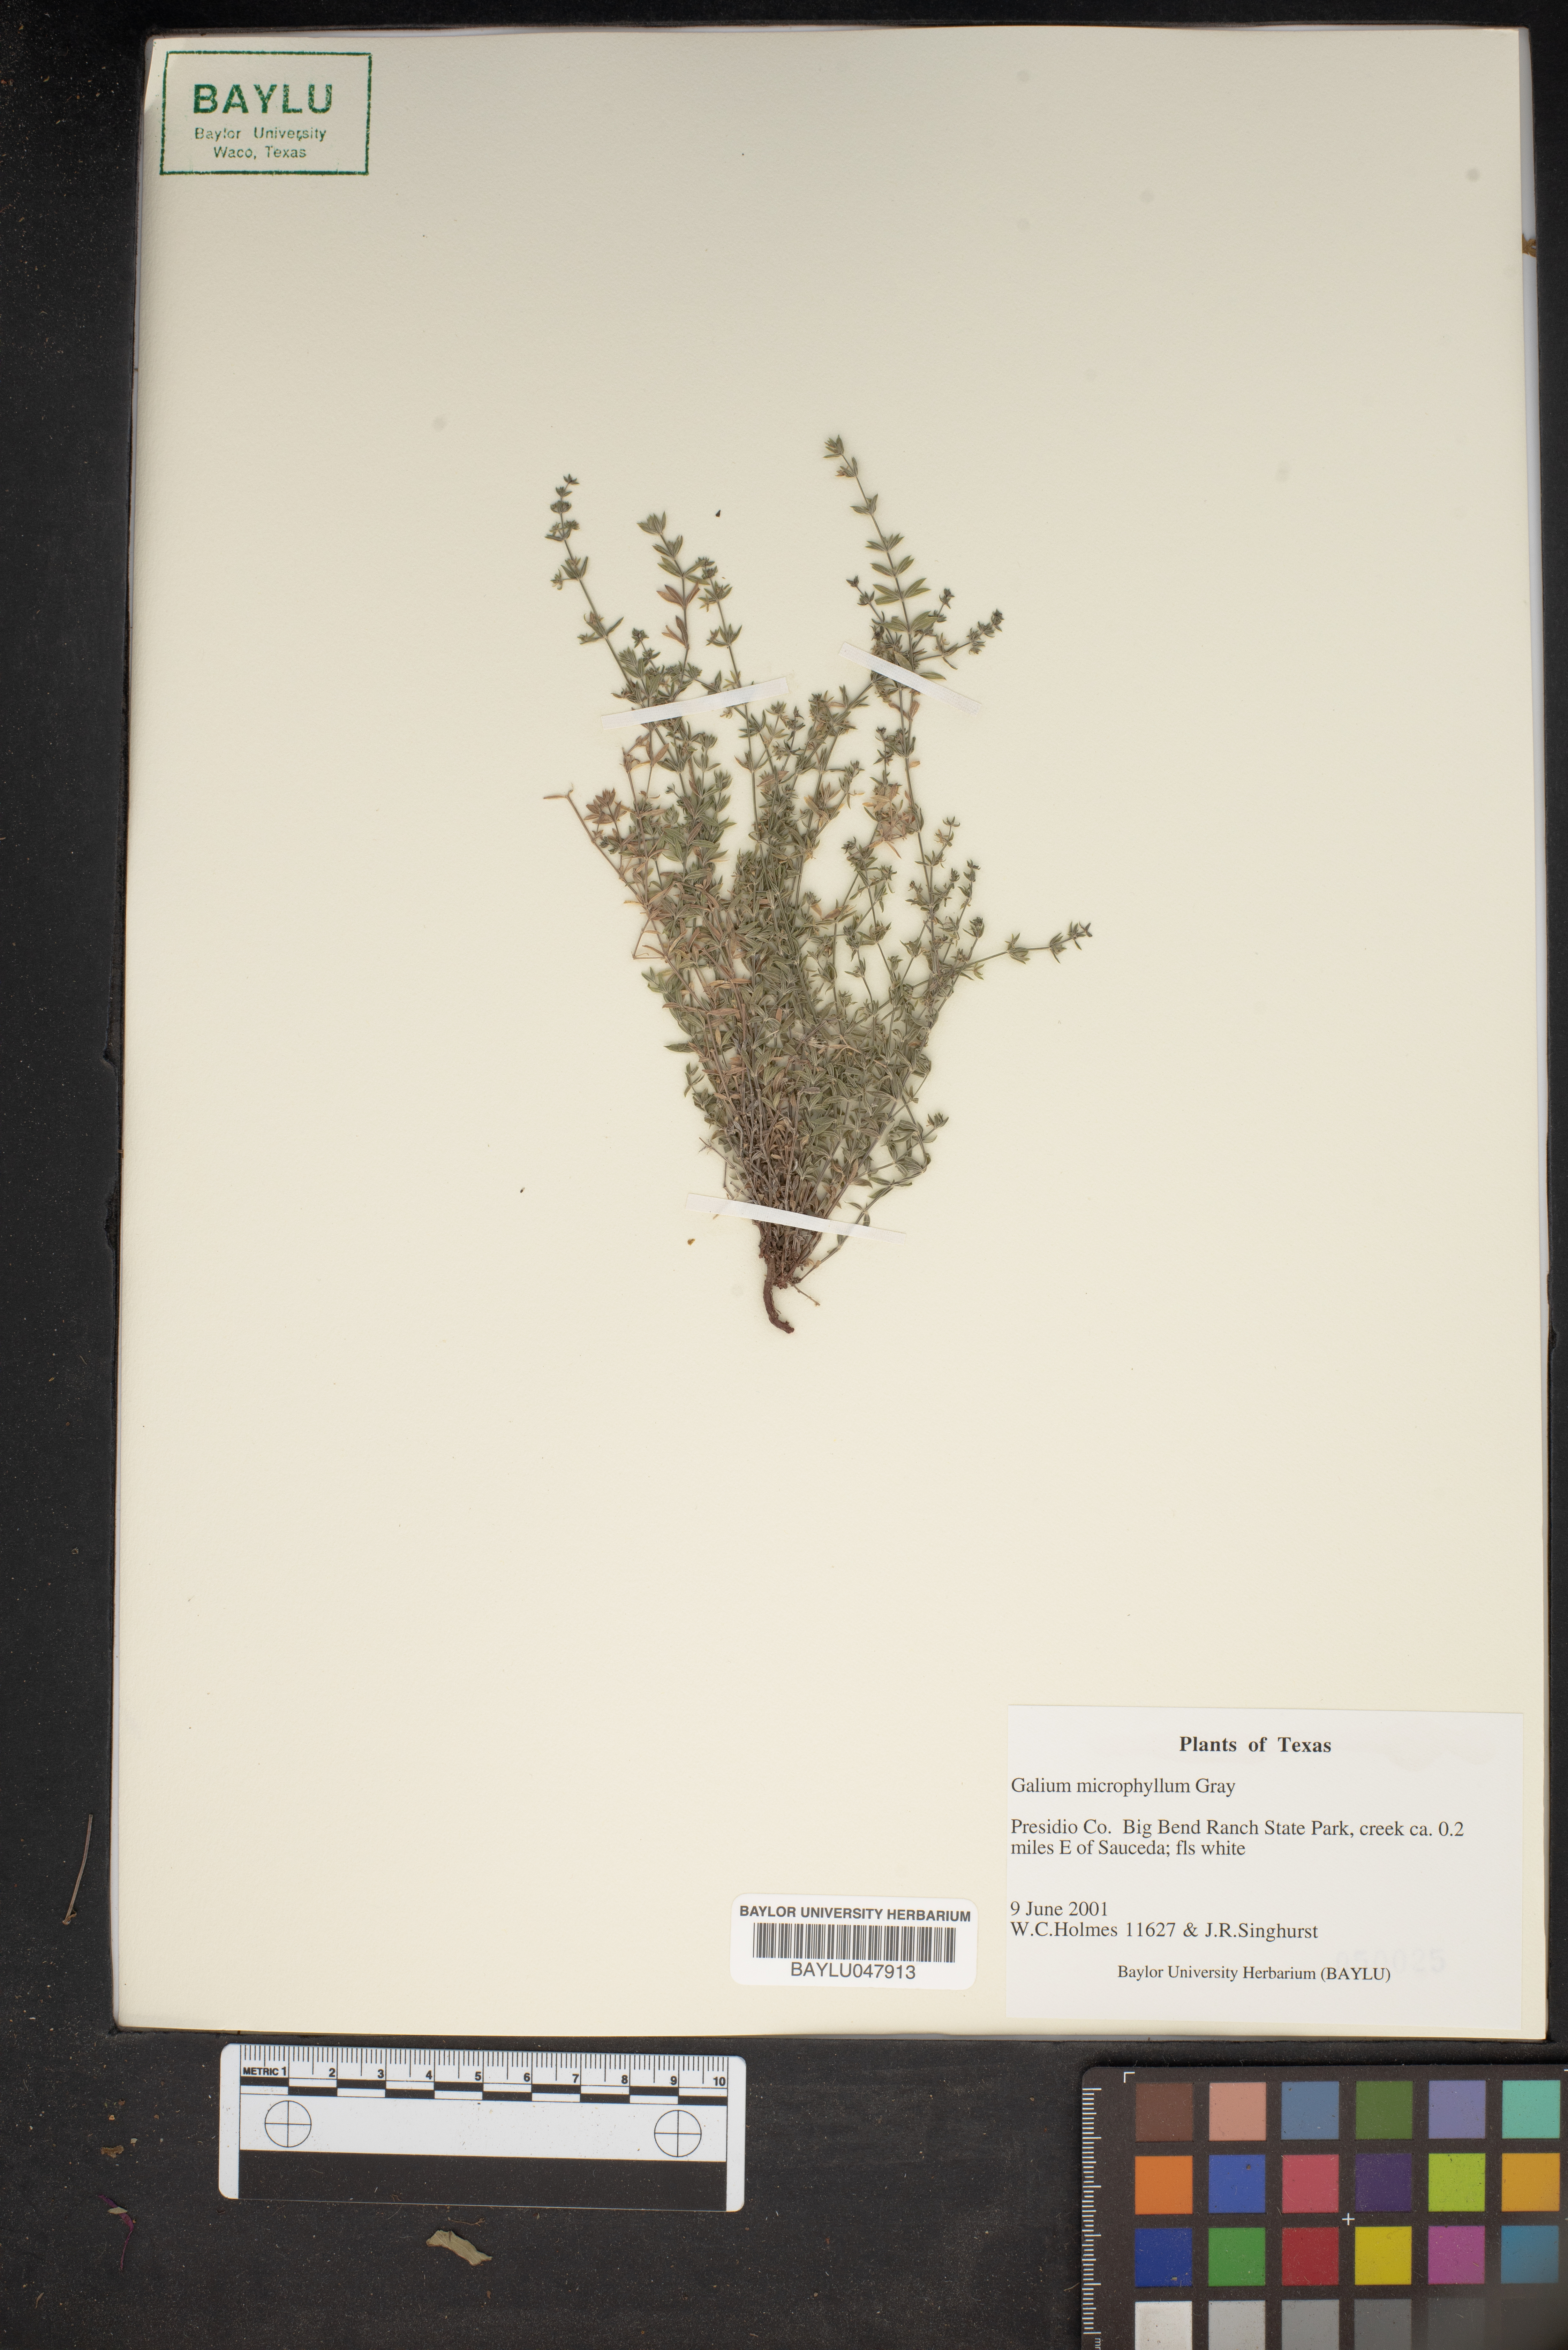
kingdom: Plantae
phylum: Tracheophyta
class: Magnoliopsida
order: Gentianales
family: Rubiaceae
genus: Galium
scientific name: Galium microphyllum
